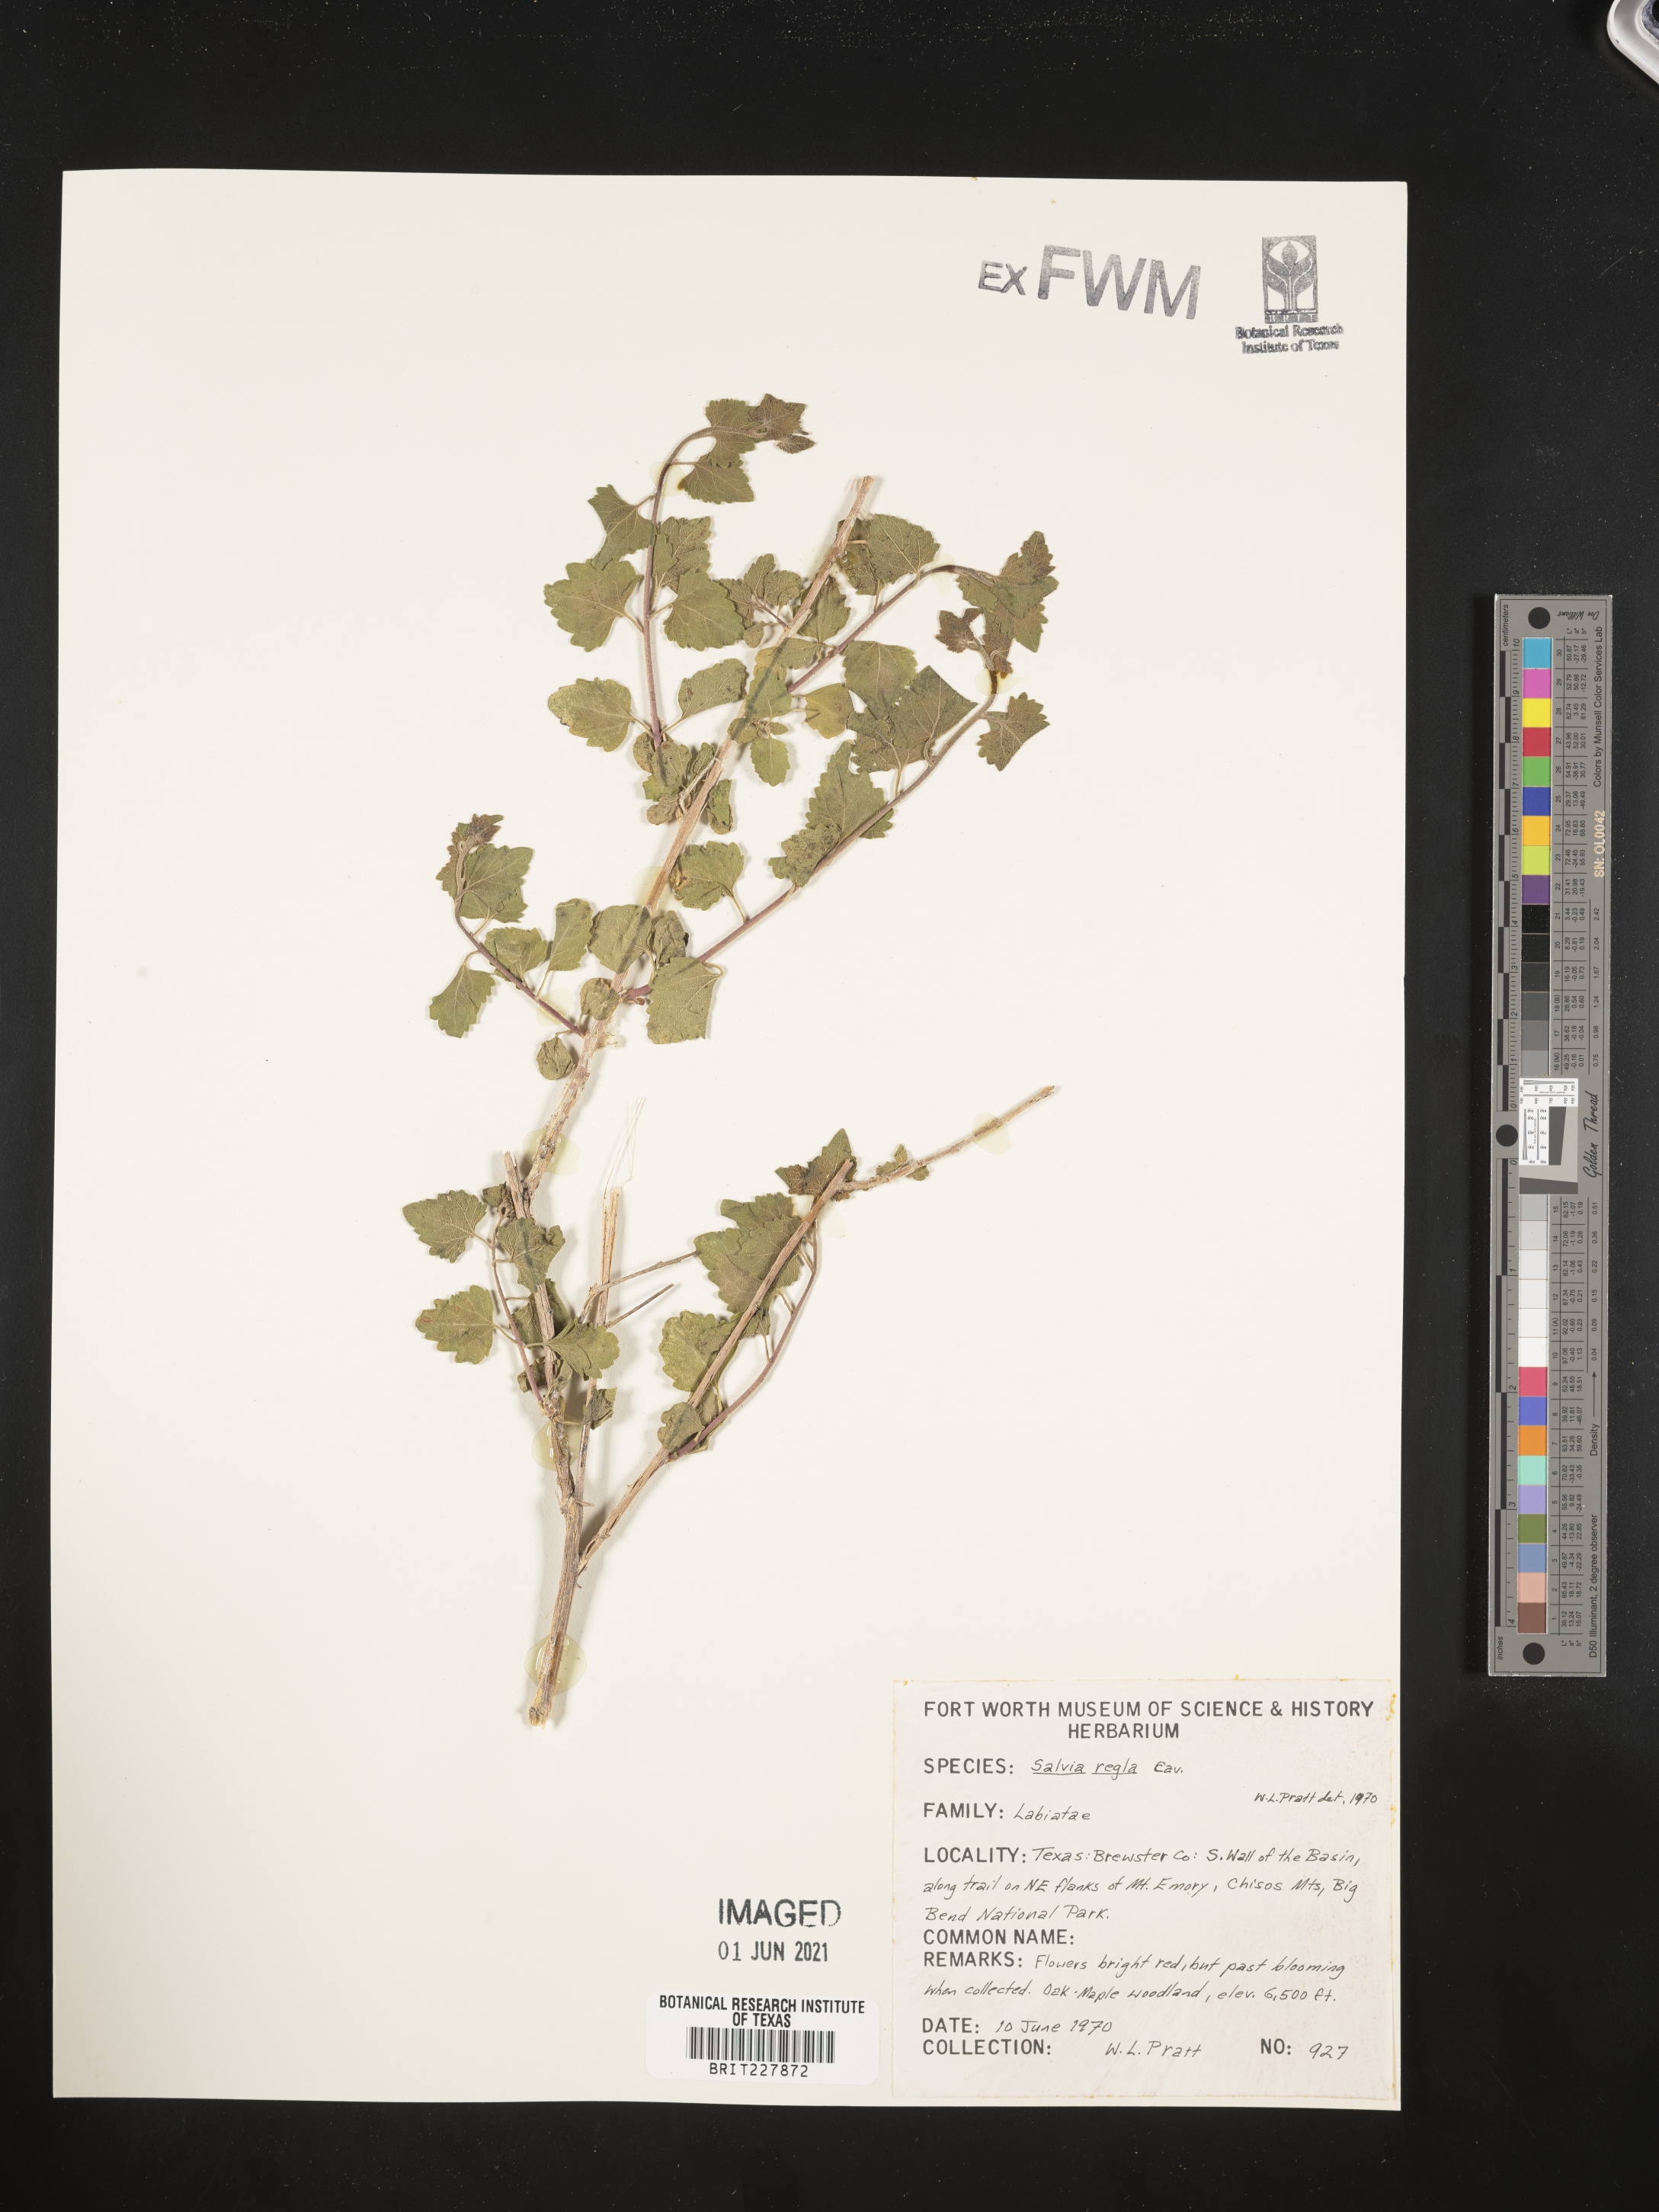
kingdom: Plantae
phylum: Tracheophyta
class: Magnoliopsida
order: Lamiales
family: Lamiaceae
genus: Salvia
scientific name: Salvia regla
